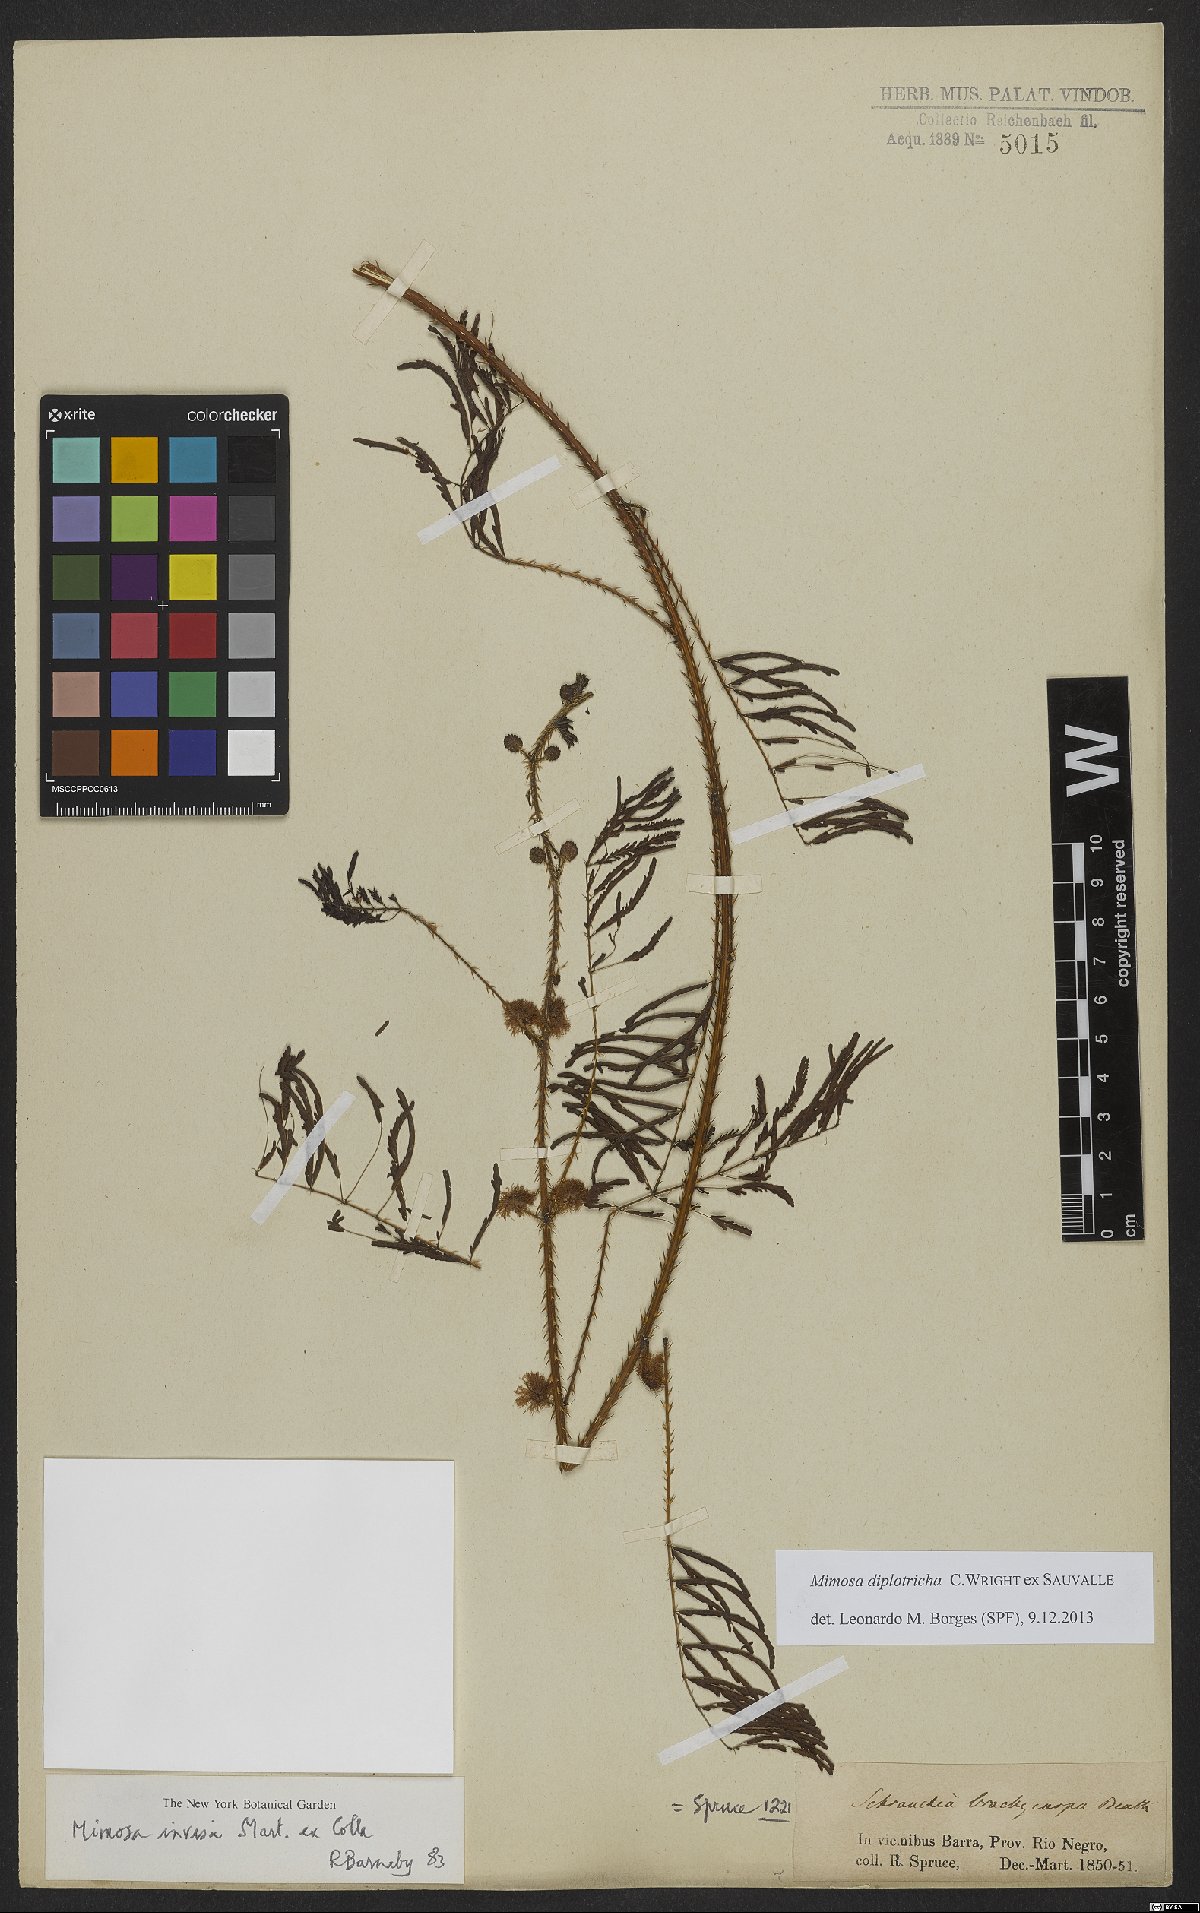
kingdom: Plantae
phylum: Tracheophyta
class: Magnoliopsida
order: Fabales
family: Fabaceae
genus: Mimosa
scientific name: Mimosa diplotricha
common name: Giant sensitive-plant
